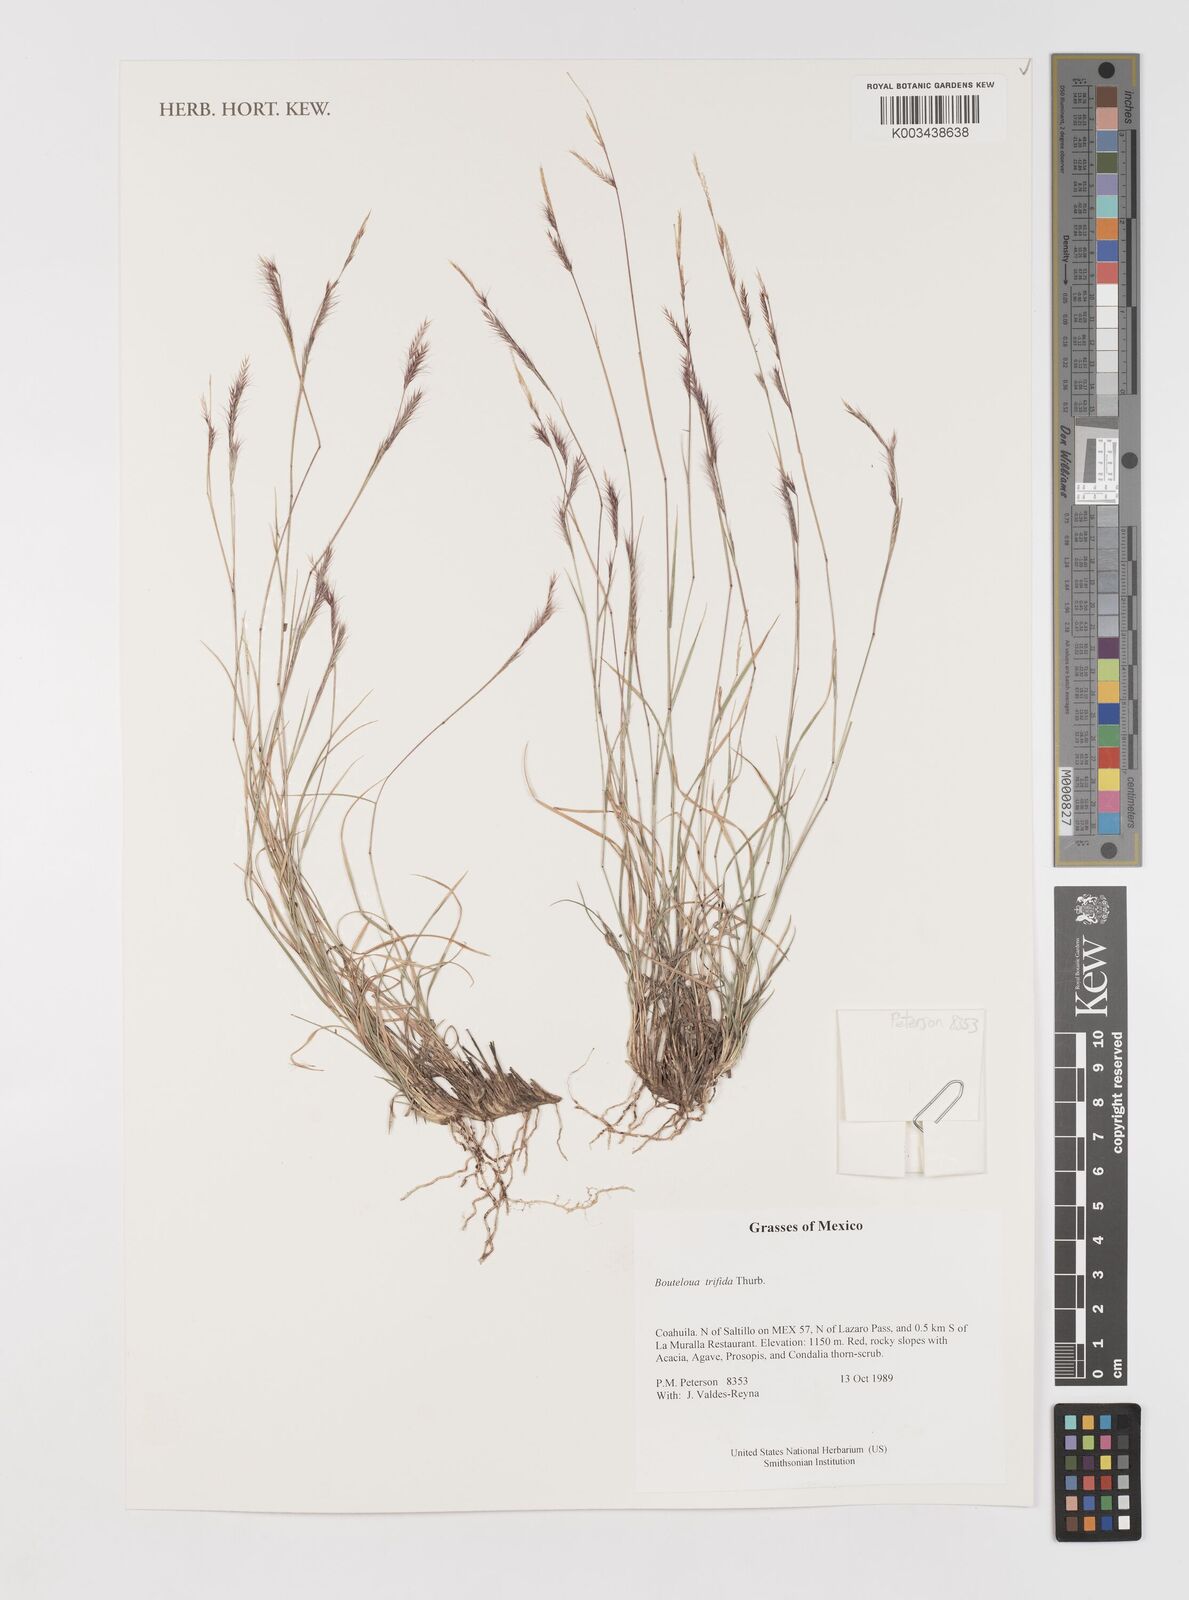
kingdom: Plantae
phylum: Tracheophyta
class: Liliopsida
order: Poales
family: Poaceae
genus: Bouteloua
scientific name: Bouteloua
